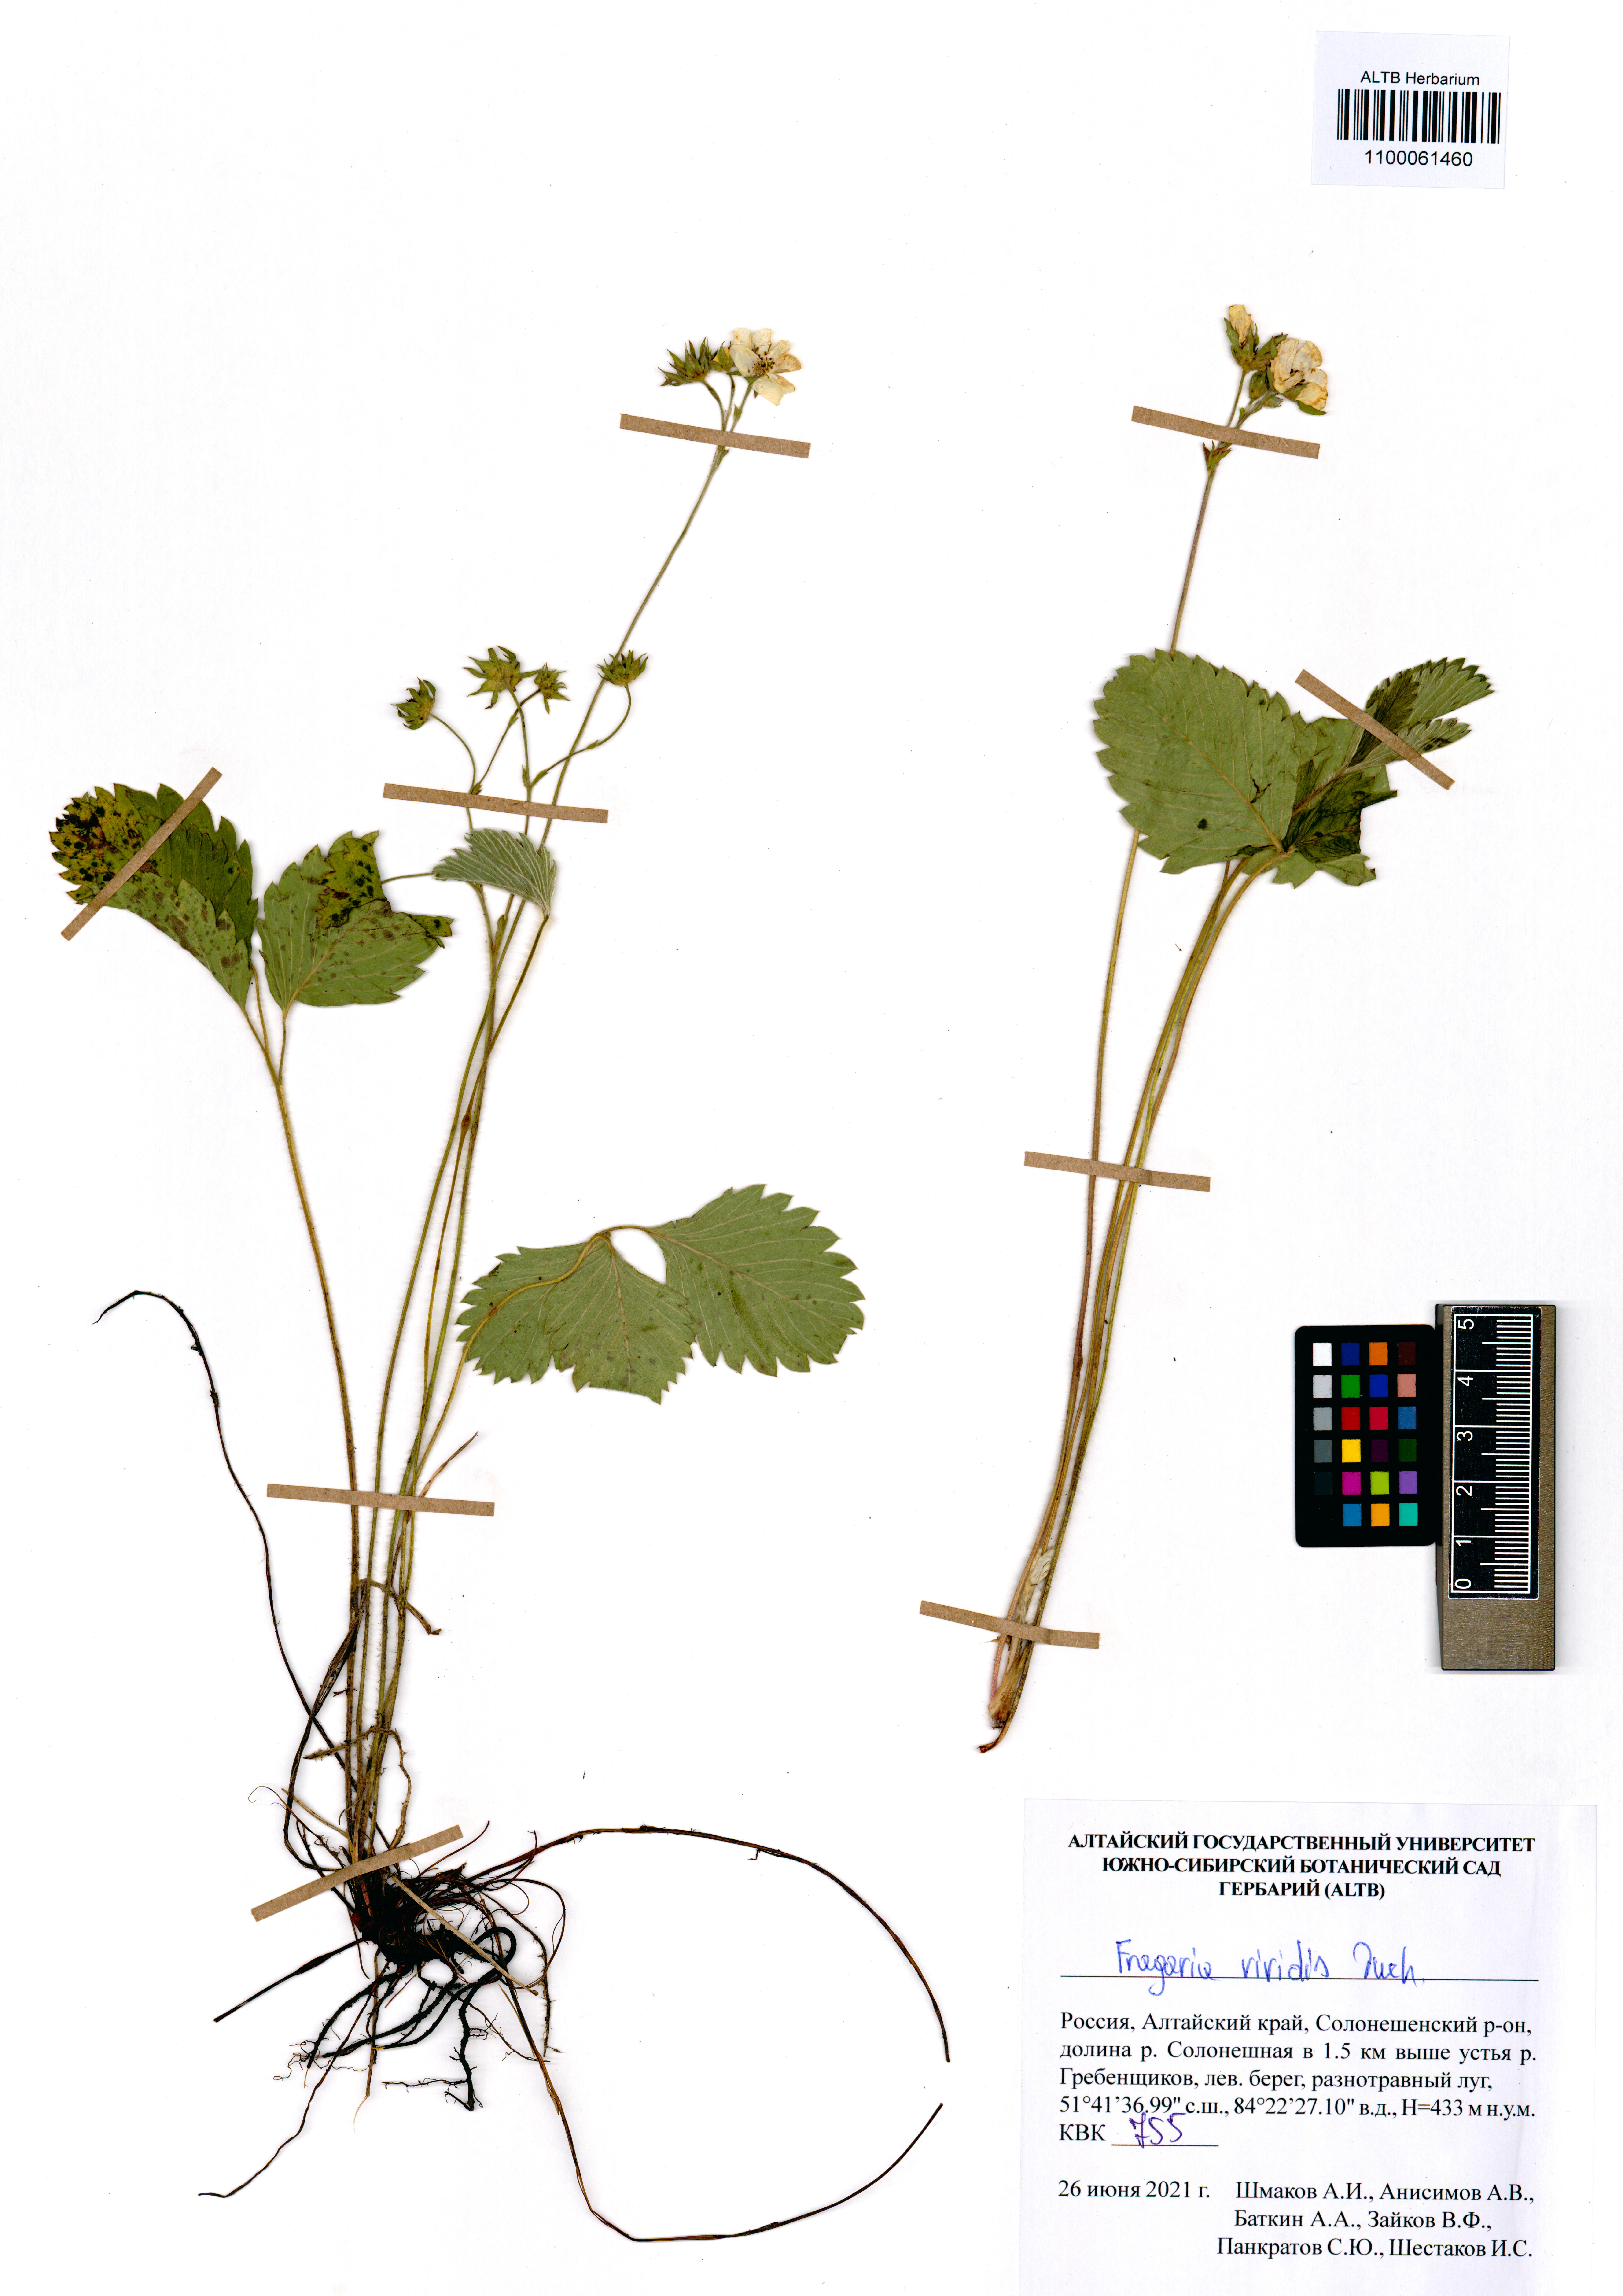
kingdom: Plantae
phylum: Tracheophyta
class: Magnoliopsida
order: Rosales
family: Rosaceae
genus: Fragaria
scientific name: Fragaria viridis
